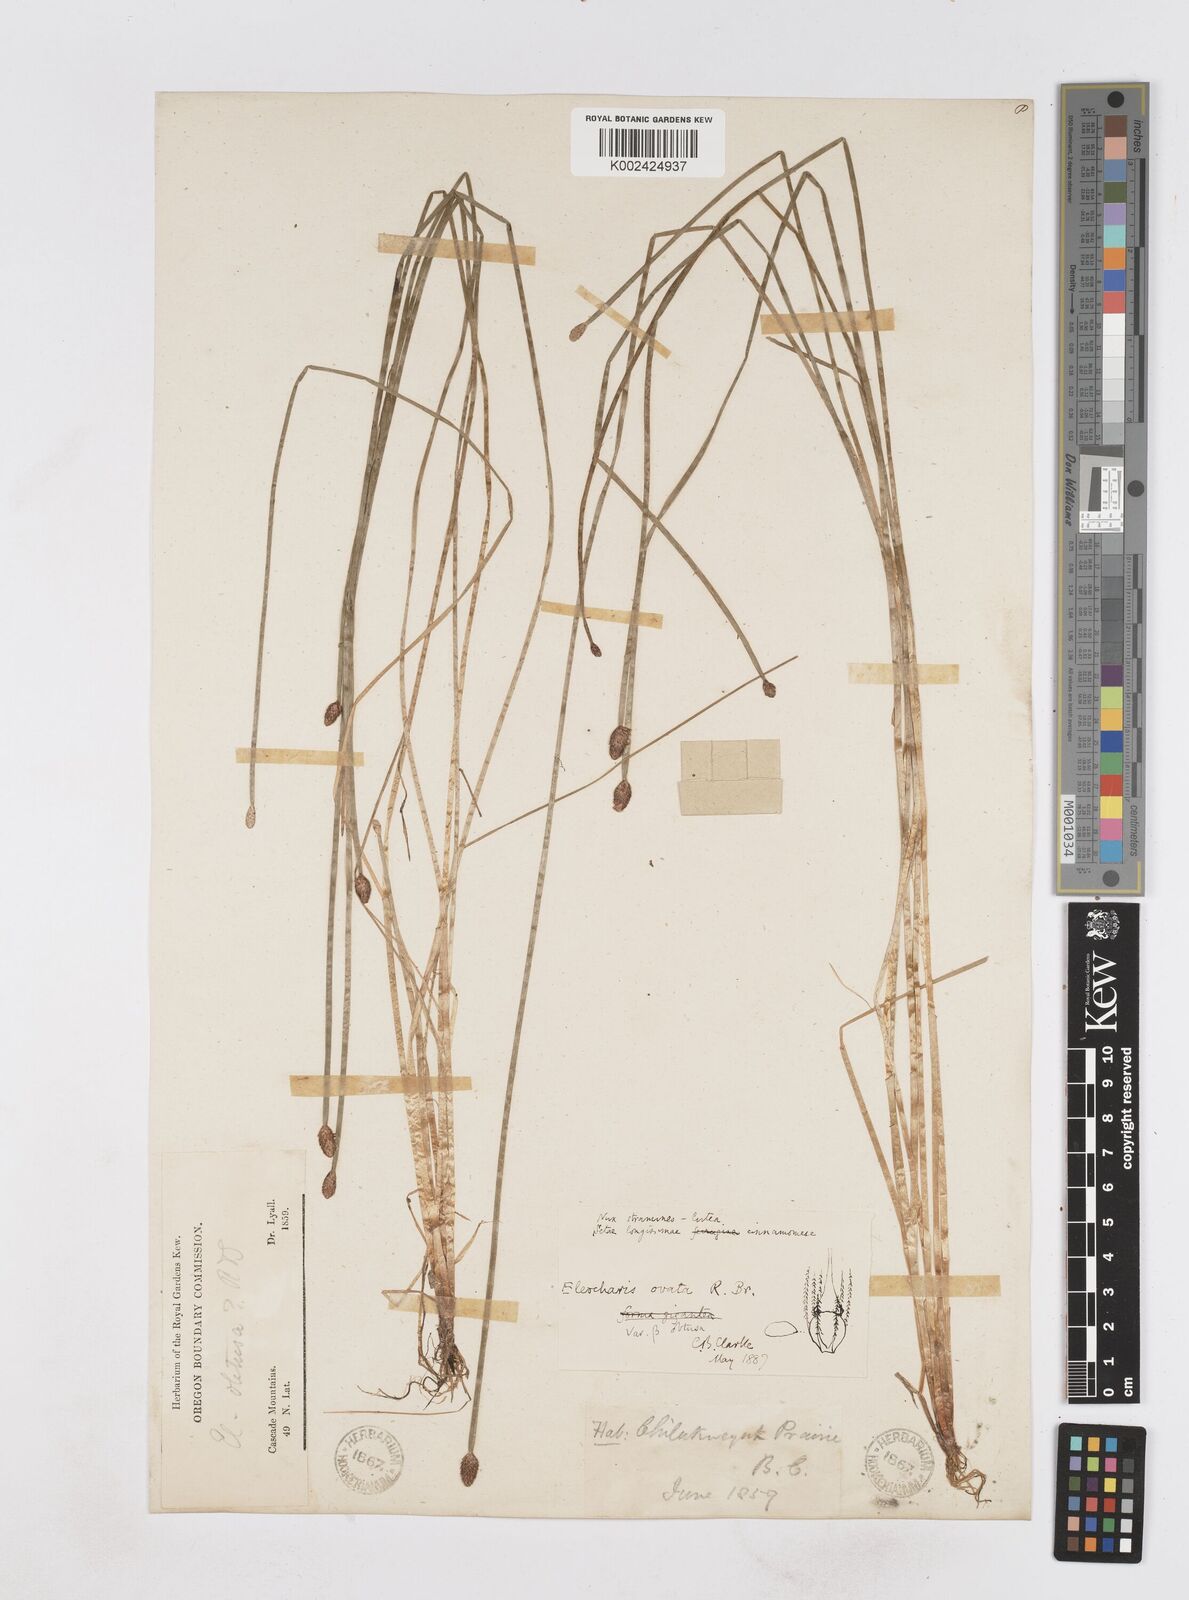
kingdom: Plantae
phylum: Tracheophyta
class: Liliopsida
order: Poales
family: Cyperaceae
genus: Eleocharis
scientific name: Eleocharis ovata
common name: Oval spike-rush
